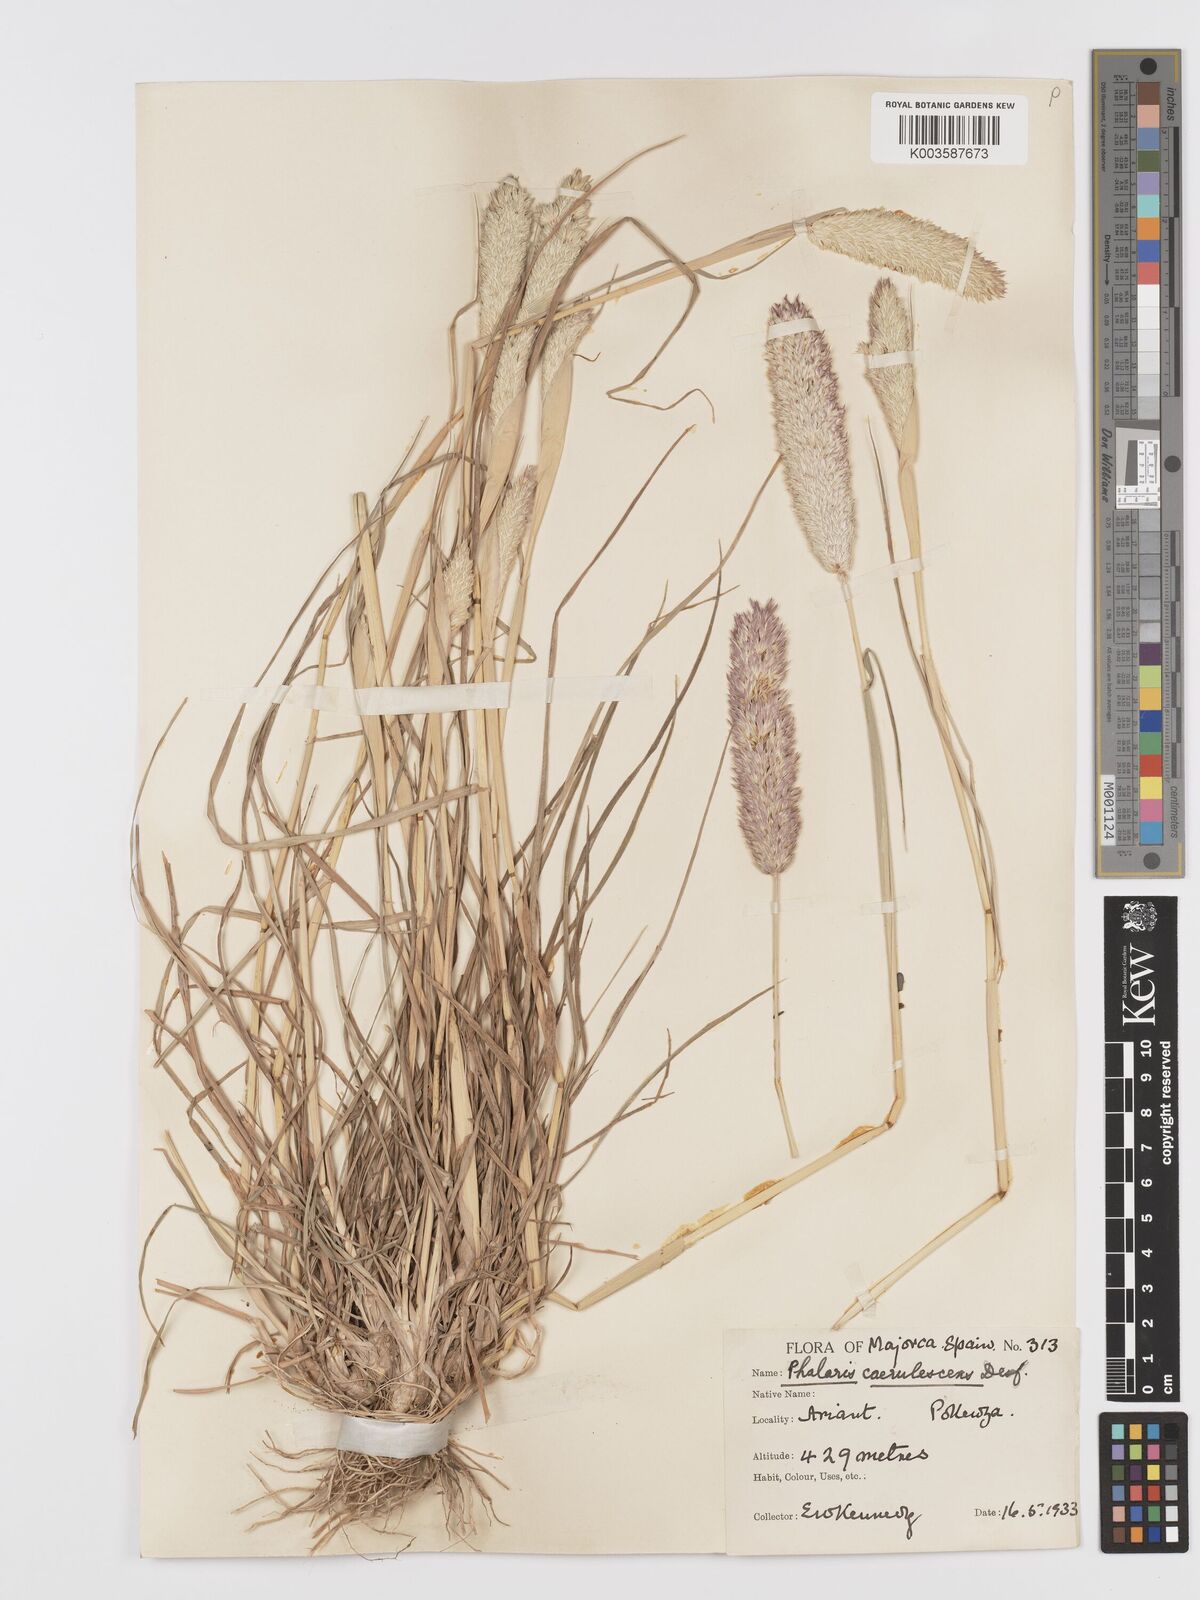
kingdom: Plantae
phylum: Tracheophyta
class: Liliopsida
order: Poales
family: Poaceae
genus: Phalaris
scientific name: Phalaris coerulescens
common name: Sunolgrass
